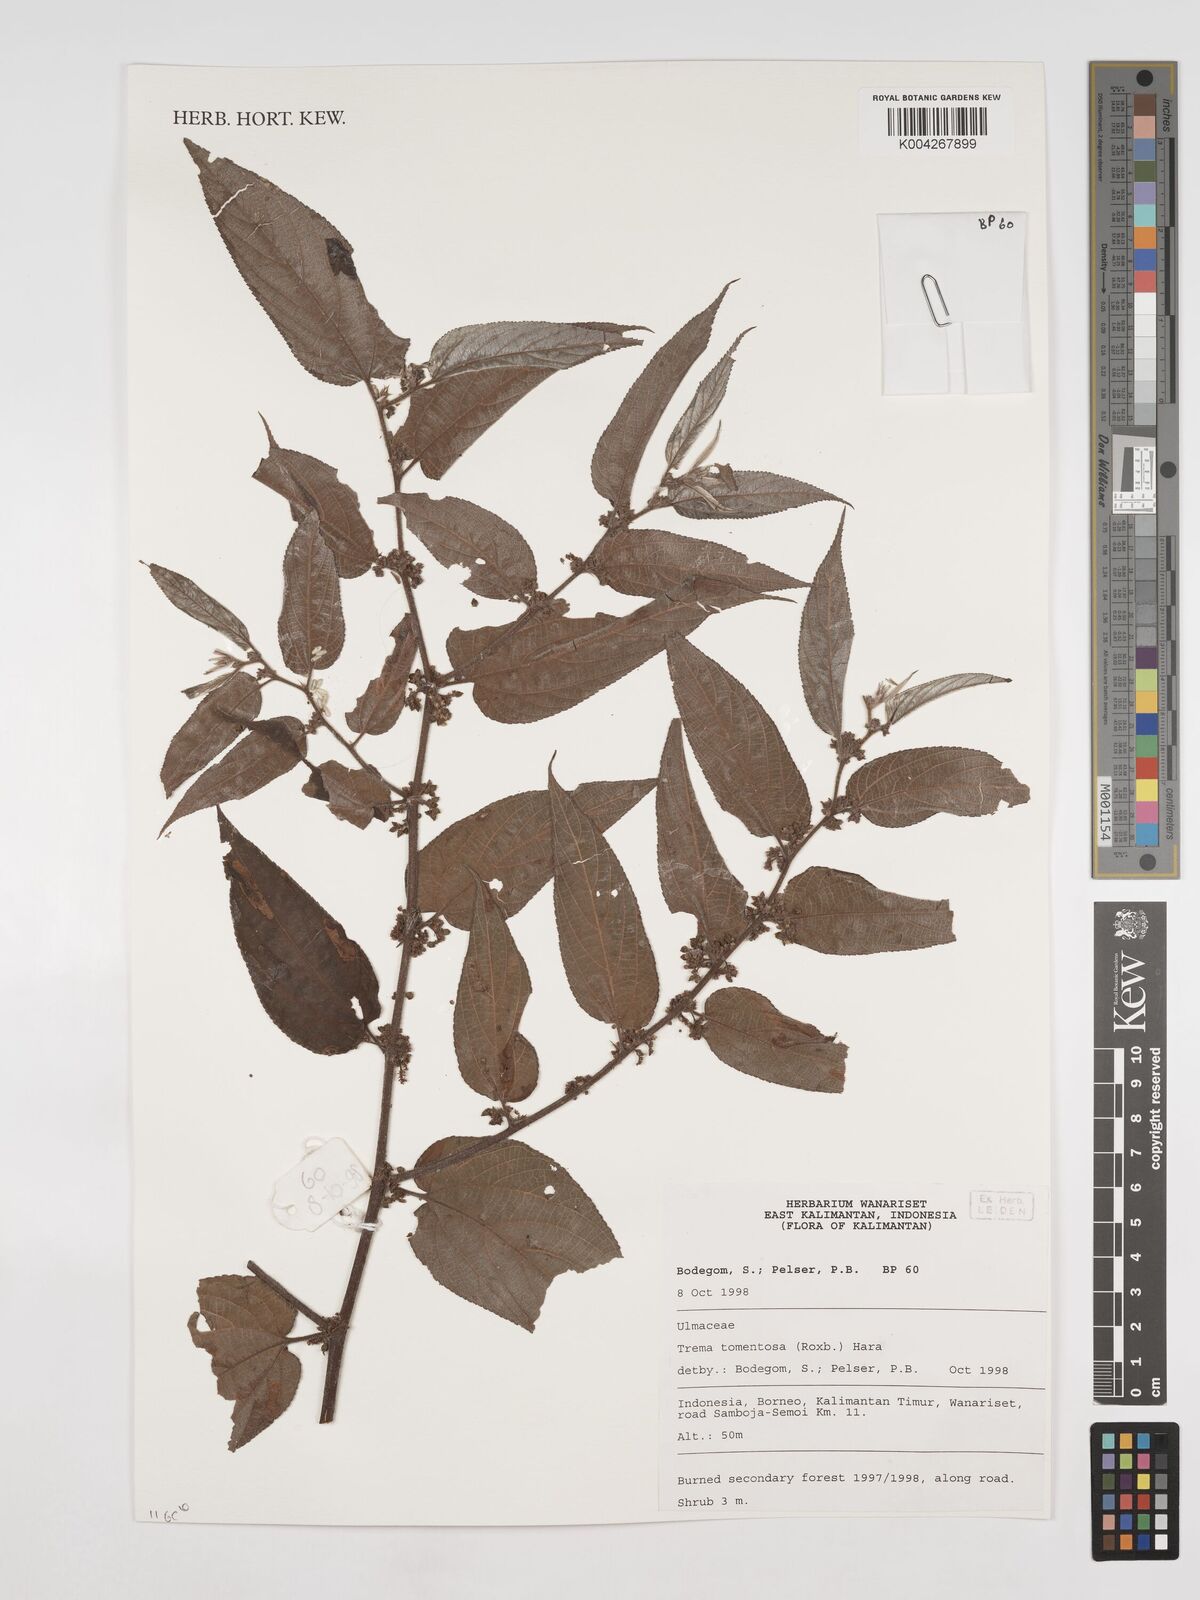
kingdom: Plantae
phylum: Tracheophyta
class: Magnoliopsida
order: Rosales
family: Cannabaceae
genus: Trema
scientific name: Trema tomentosum
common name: Peach-leaf-poisonbush
